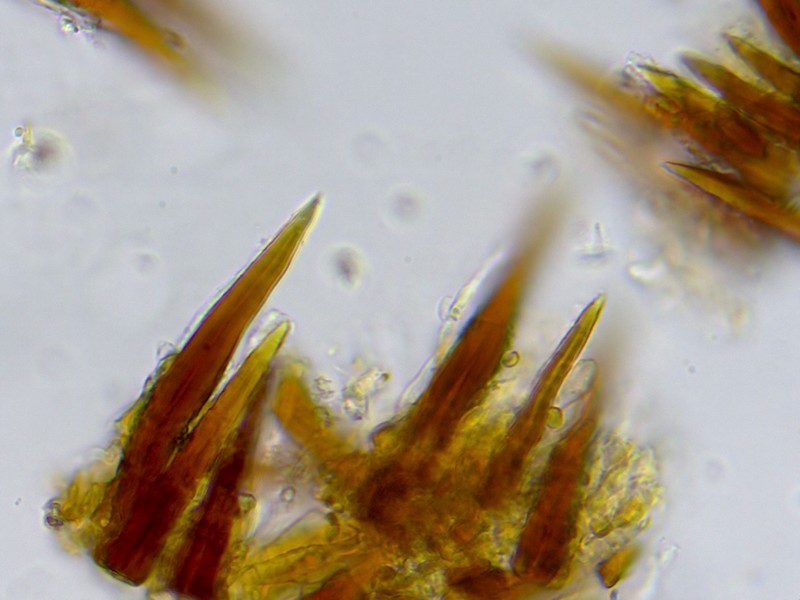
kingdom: Fungi
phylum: Basidiomycota
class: Agaricomycetes
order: Hymenochaetales
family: Hymenochaetaceae
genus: Hymenochaete
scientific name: Hymenochaete rubiginosa
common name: stiv ruslædersvamp
